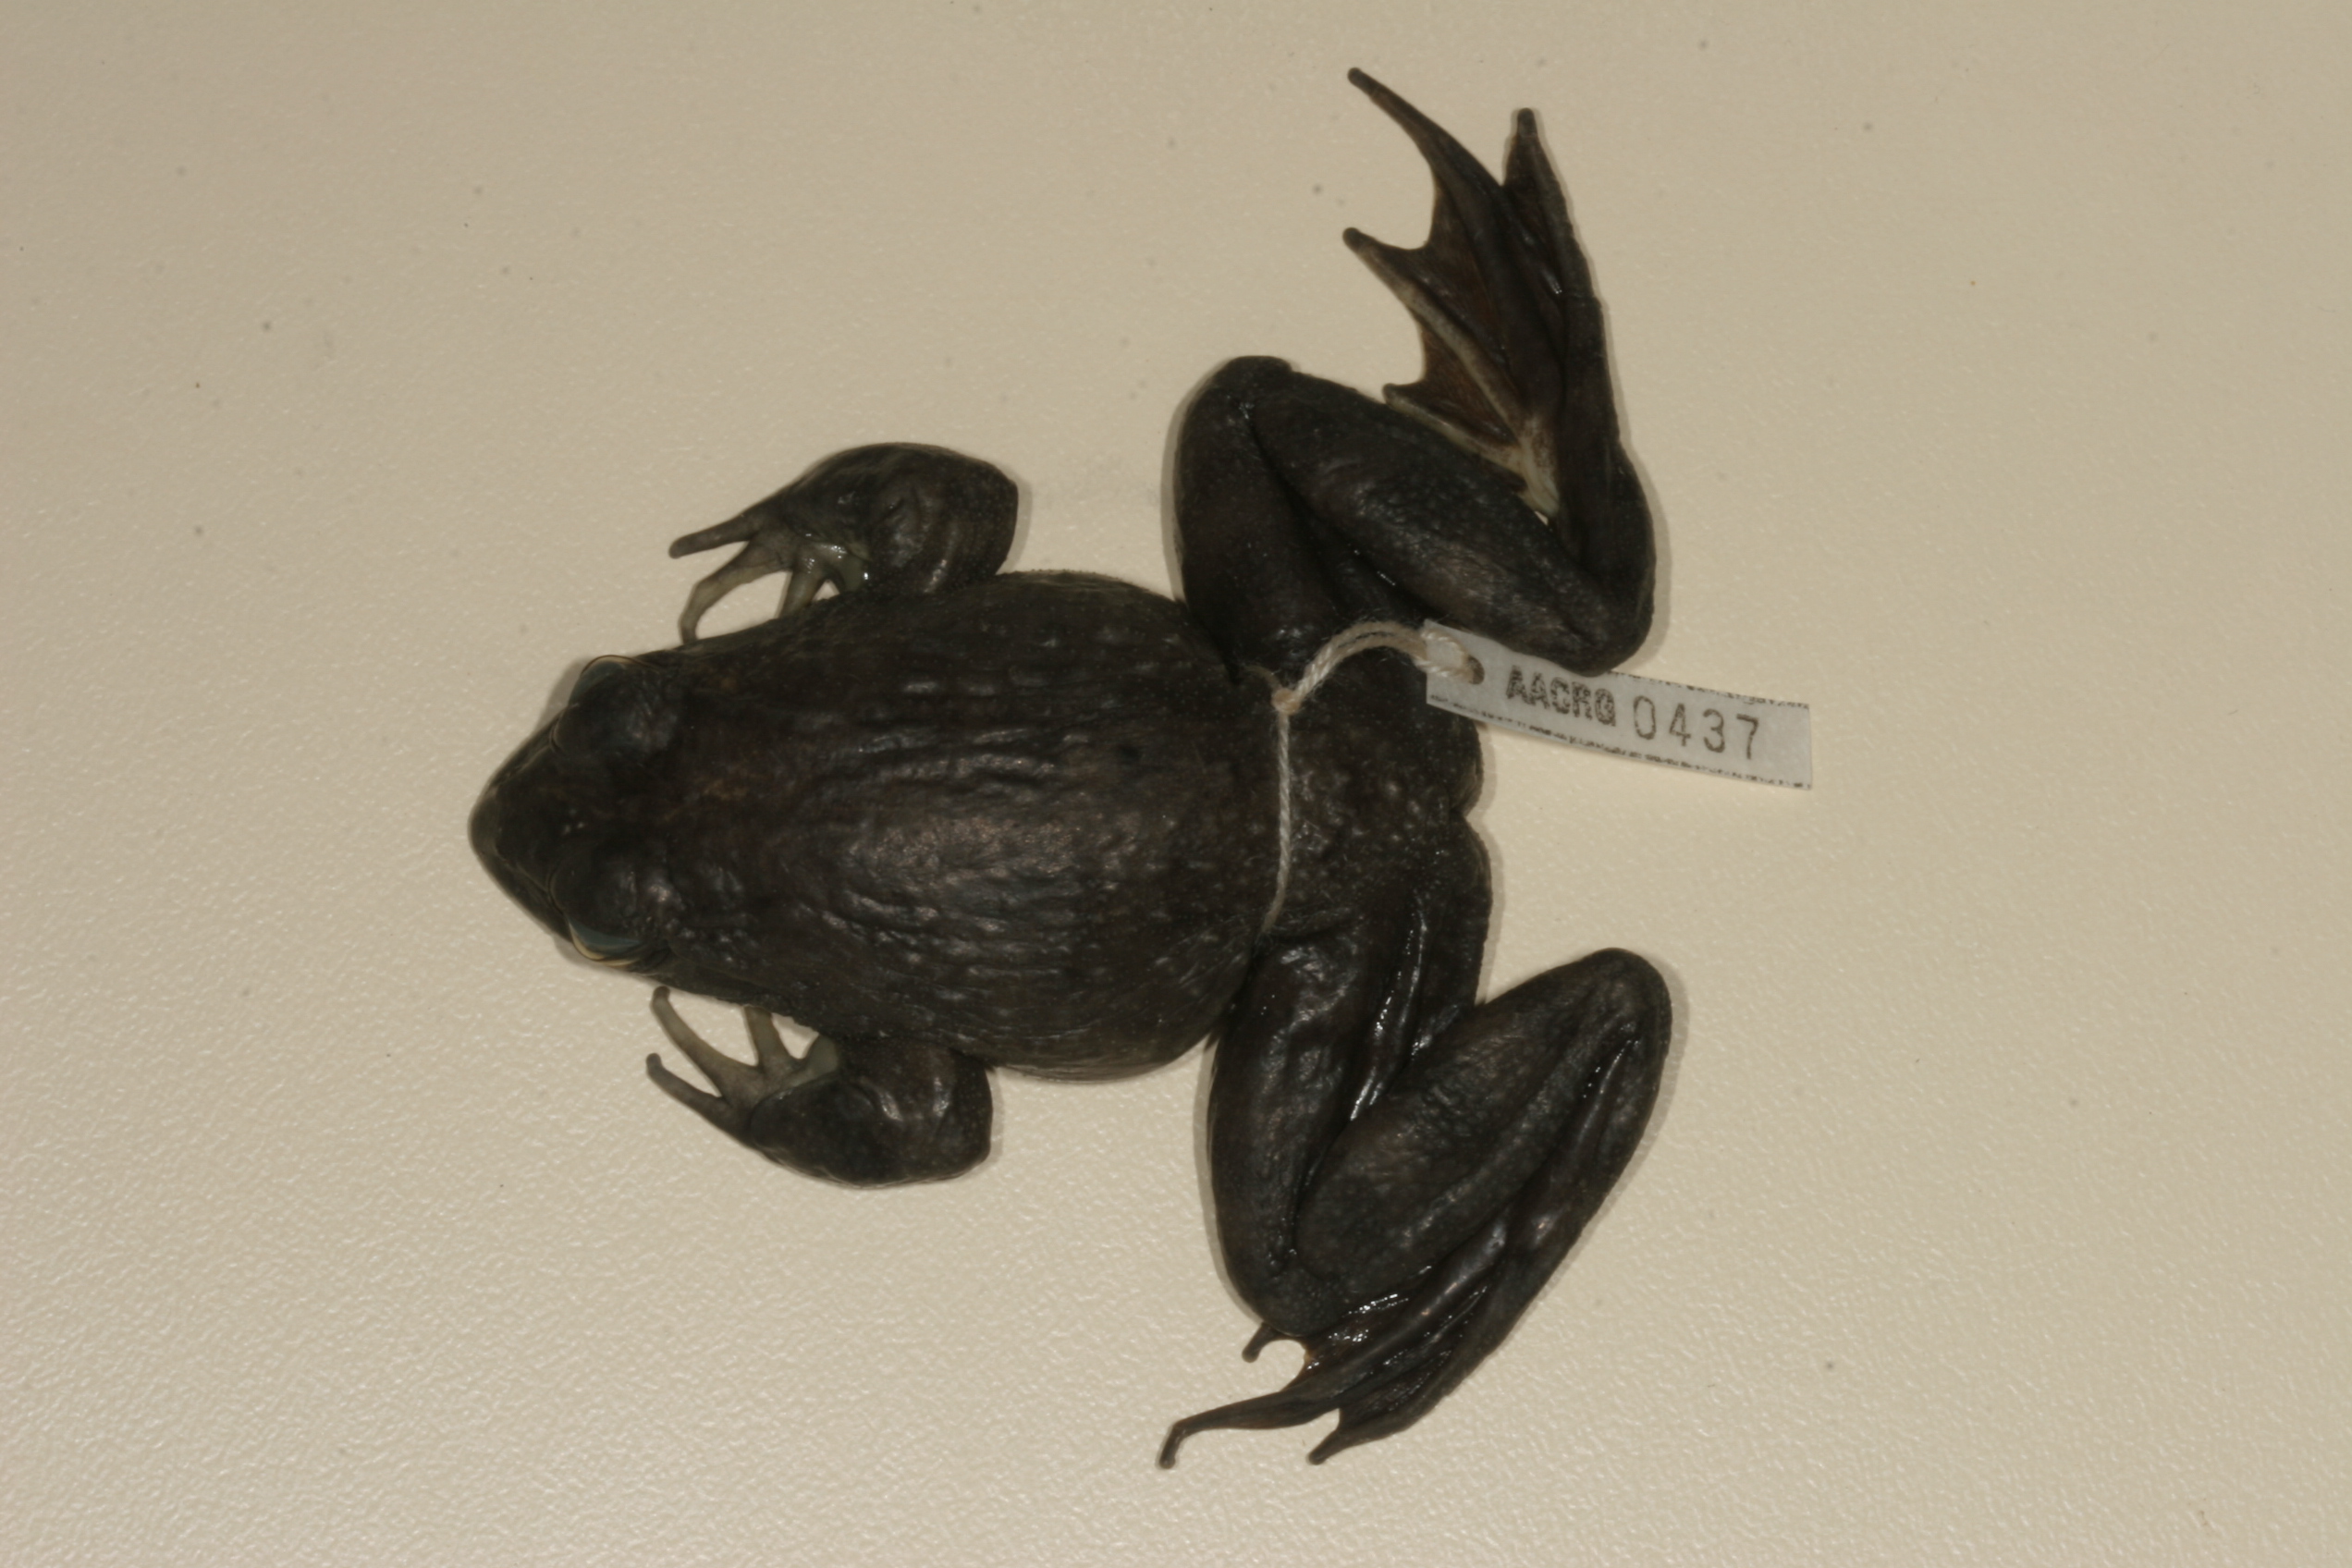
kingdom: Animalia
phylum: Chordata
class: Amphibia
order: Anura
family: Pyxicephalidae
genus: Amietia
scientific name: Amietia vandijki
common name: Van dijk's river frog
